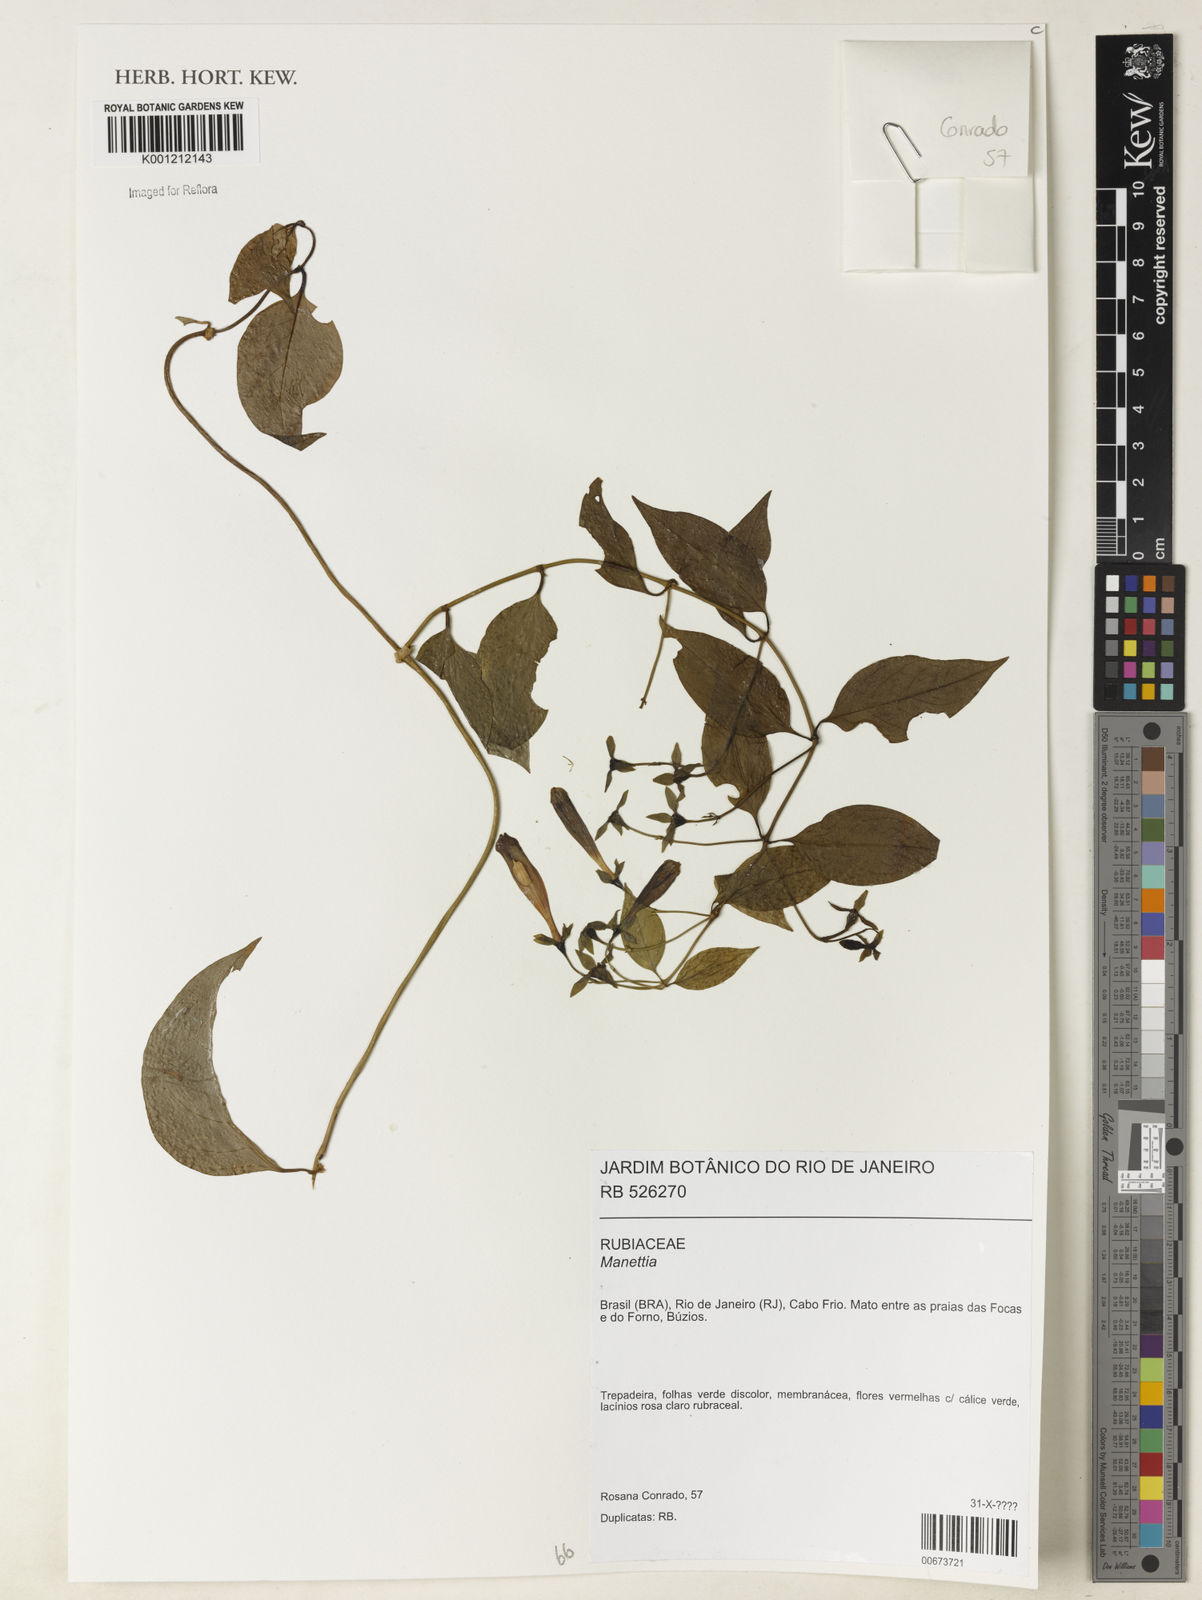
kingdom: Plantae
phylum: Tracheophyta
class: Magnoliopsida
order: Gentianales
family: Rubiaceae
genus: Manettia
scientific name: Manettia
